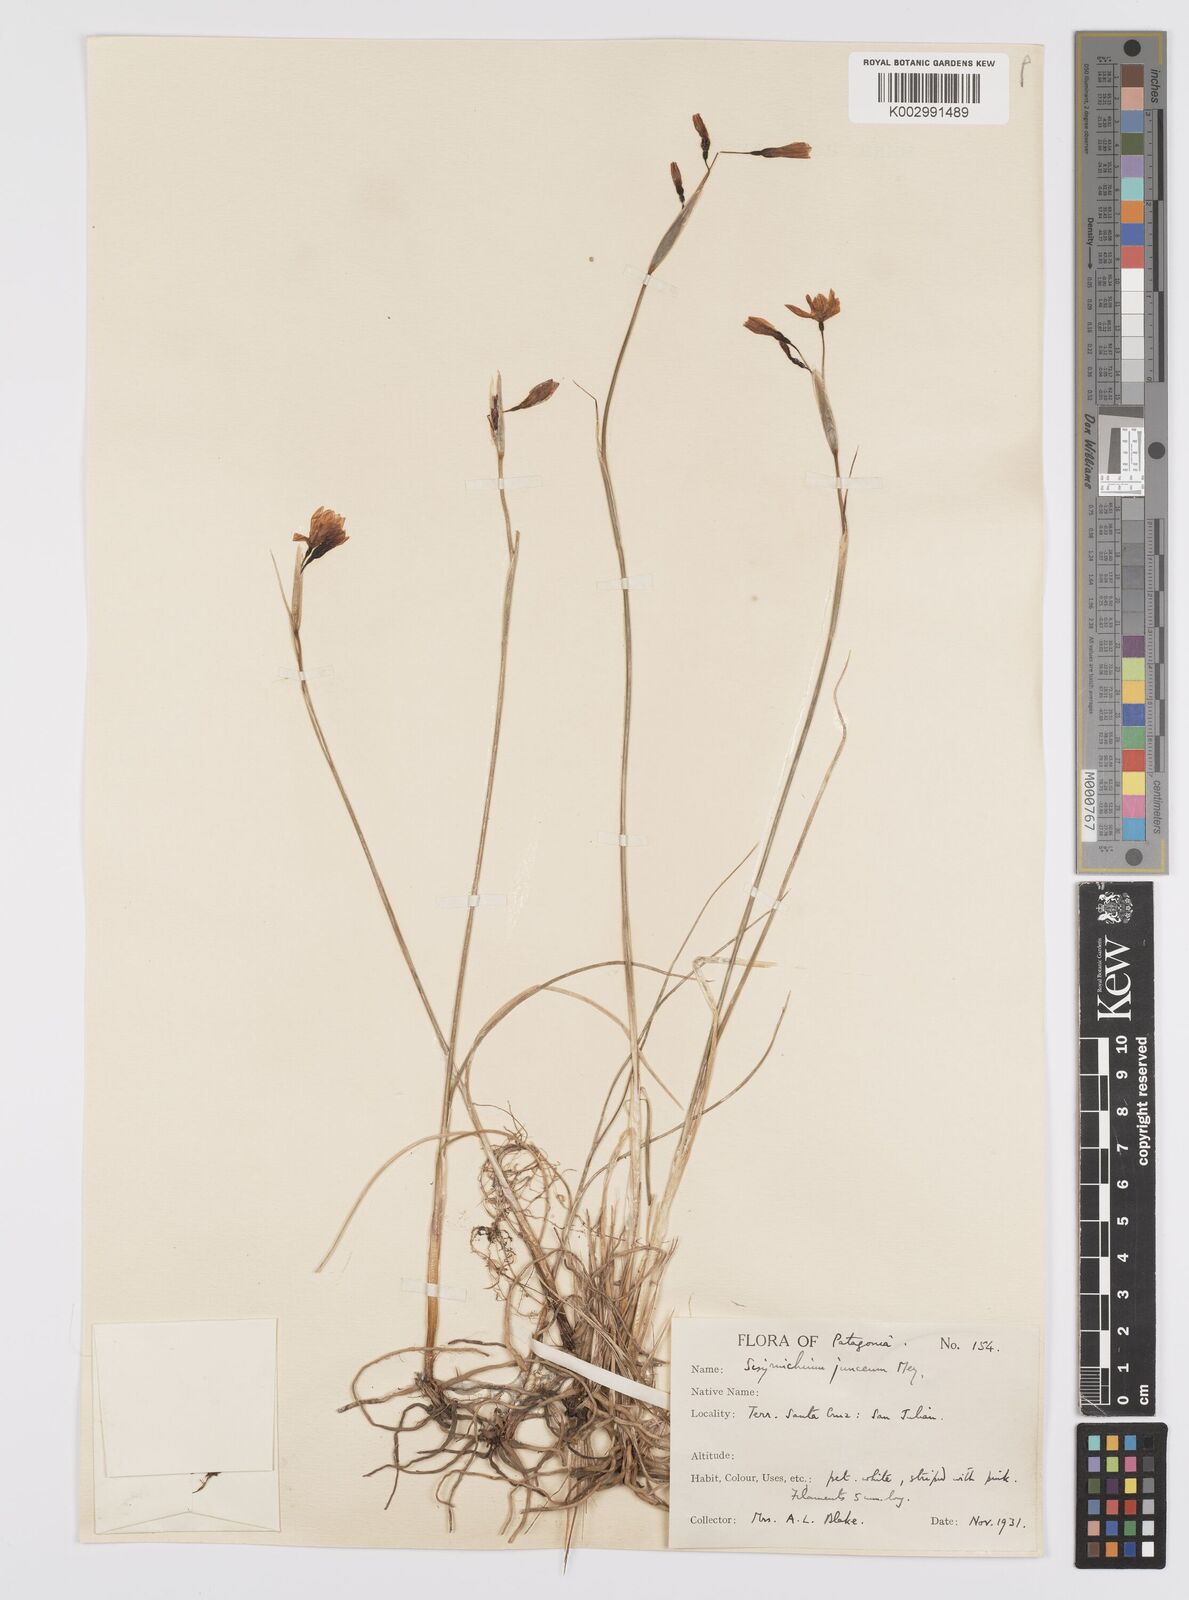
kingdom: Plantae
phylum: Tracheophyta
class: Liliopsida
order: Asparagales
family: Iridaceae
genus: Olsynium
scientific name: Olsynium
